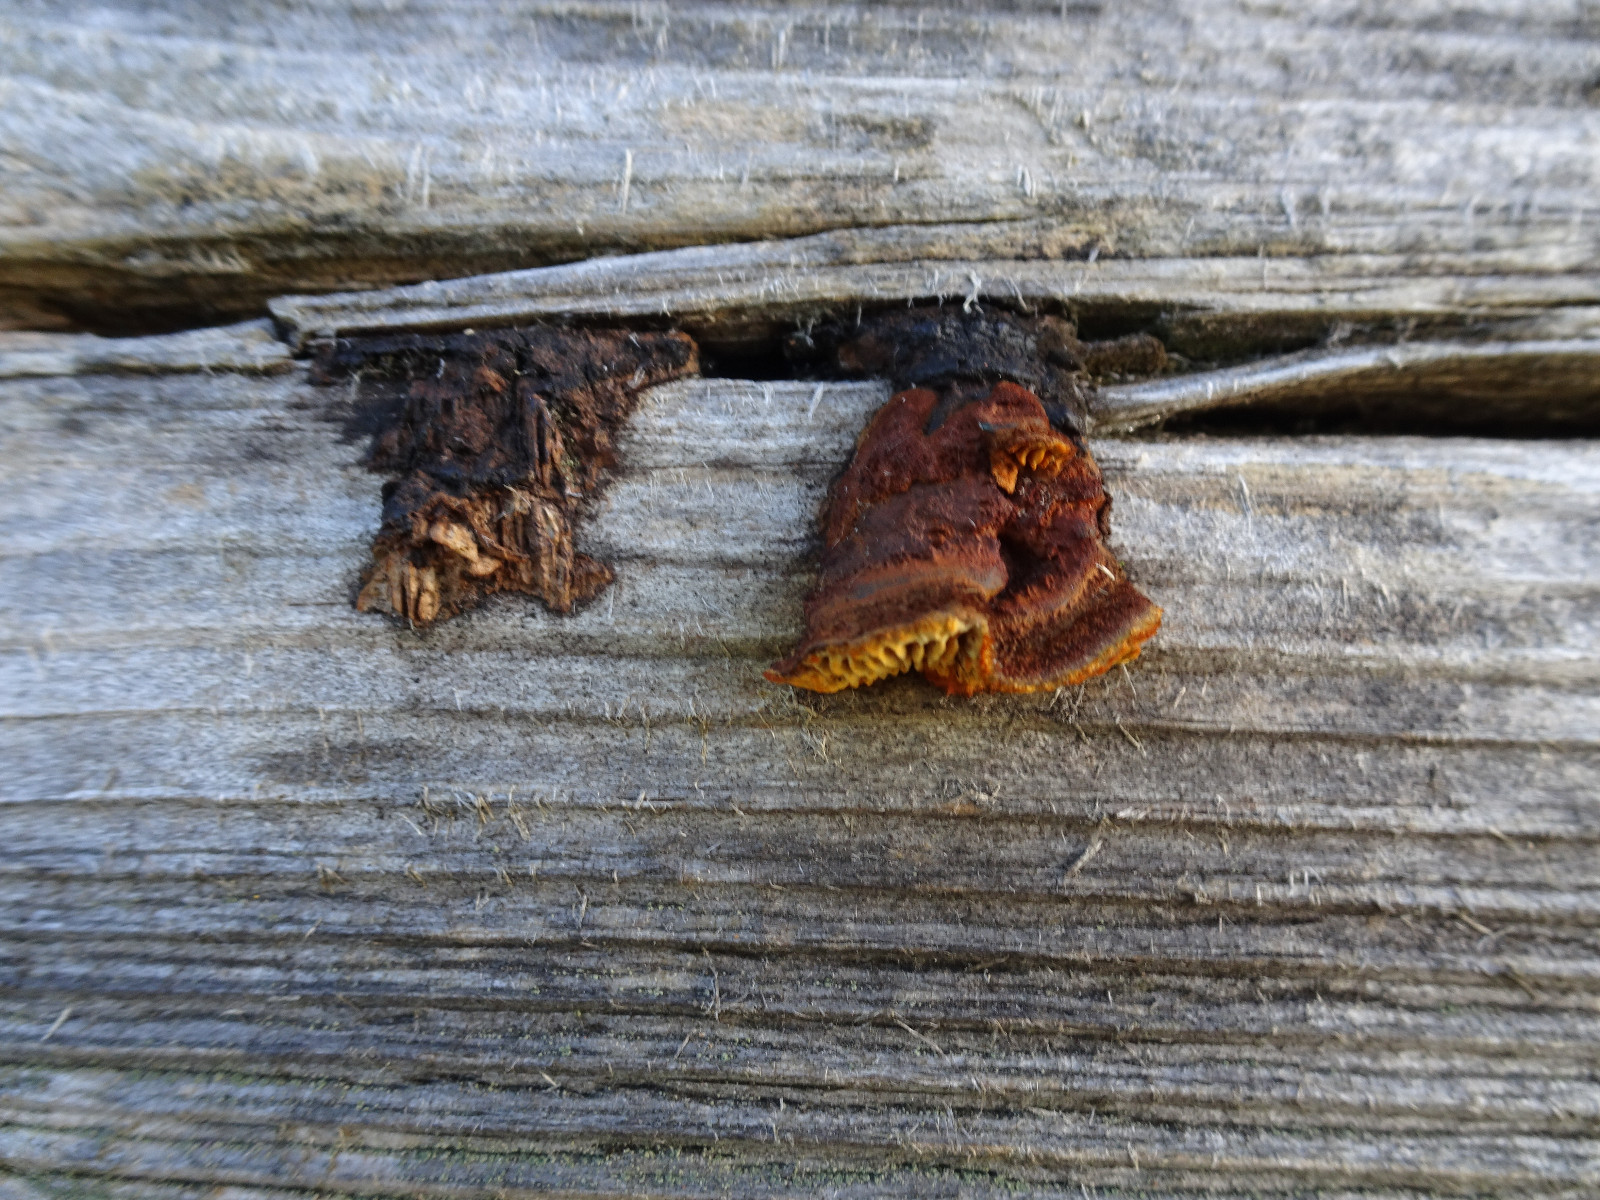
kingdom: Fungi
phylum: Basidiomycota
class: Agaricomycetes
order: Gloeophyllales
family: Gloeophyllaceae
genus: Gloeophyllum
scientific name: Gloeophyllum sepiarium
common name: fyrre-korkhat
